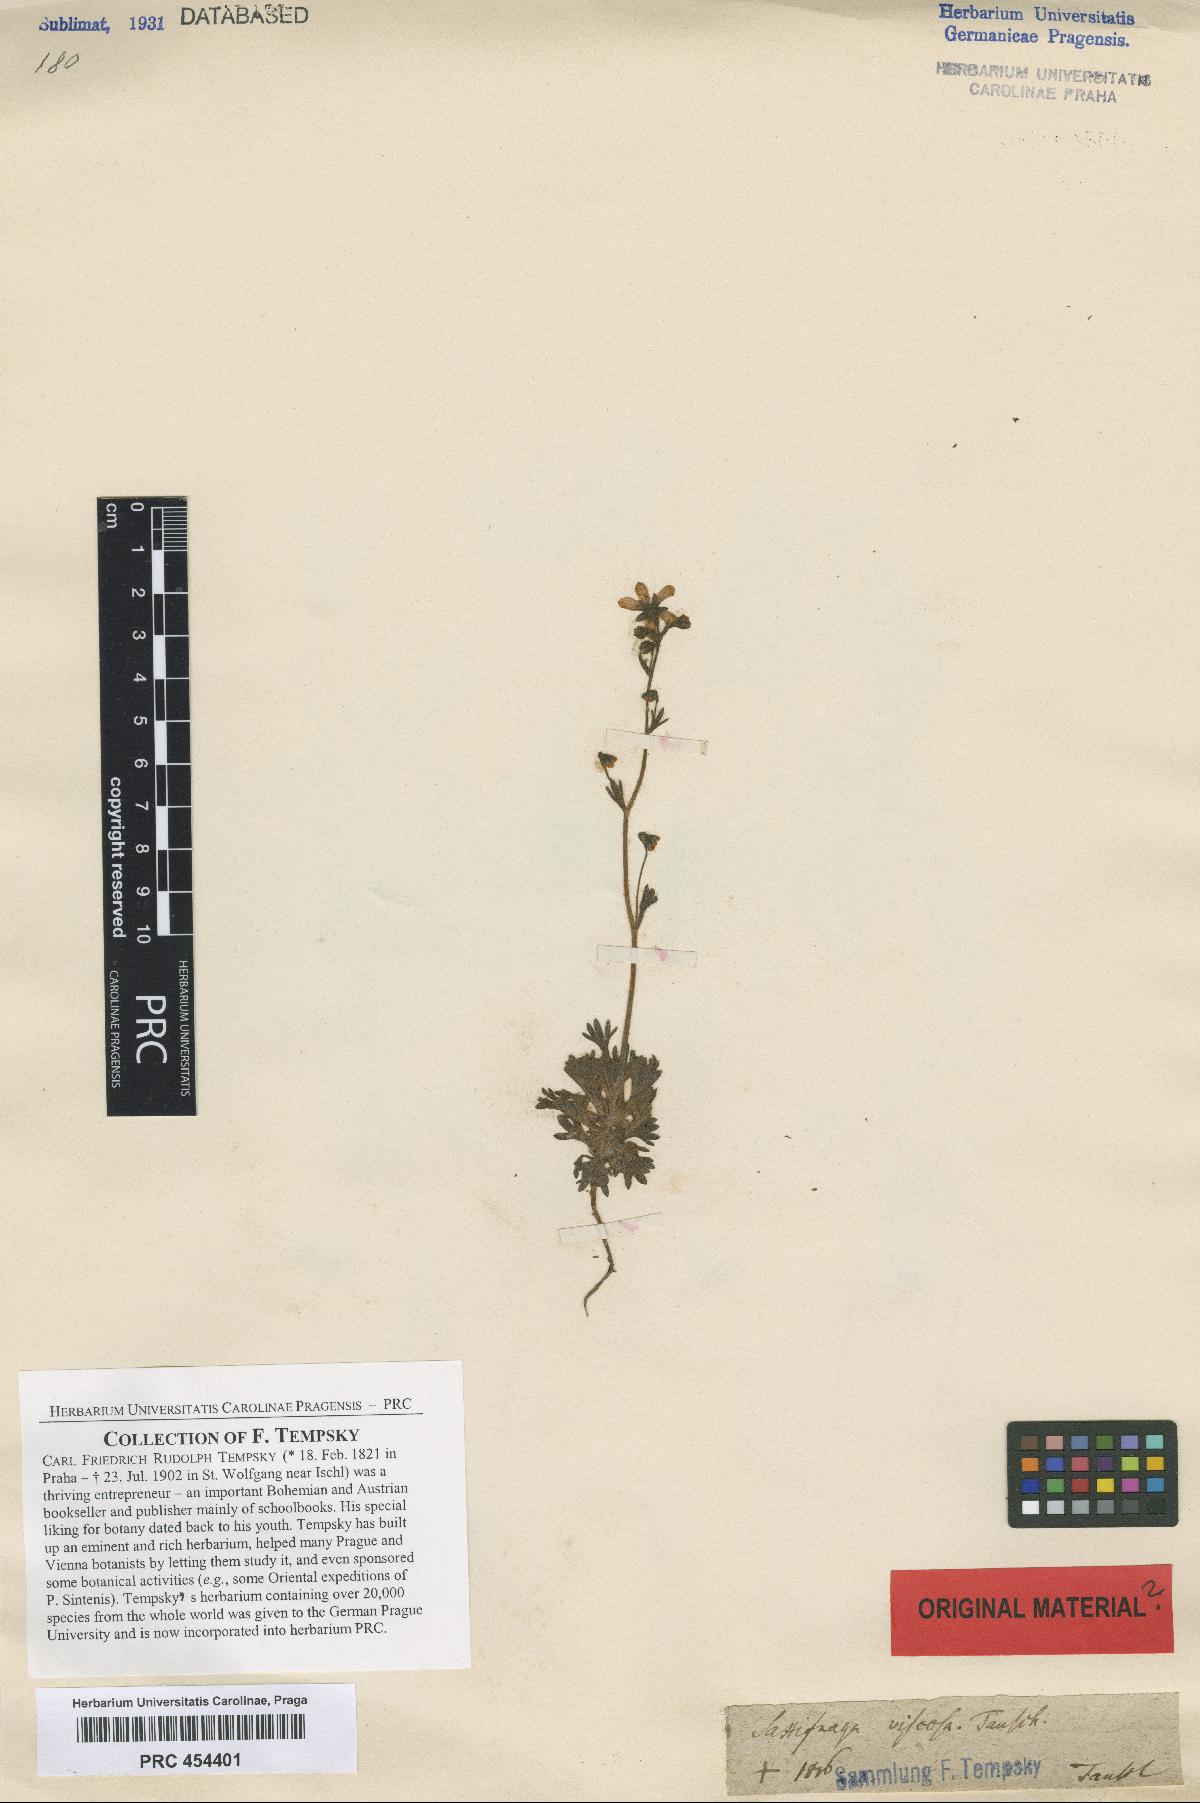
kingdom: Plantae
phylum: Tracheophyta
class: Magnoliopsida
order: Saxifragales
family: Saxifragaceae
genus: Saxifraga
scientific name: Saxifraga rosacea
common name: Irish saxifrage
